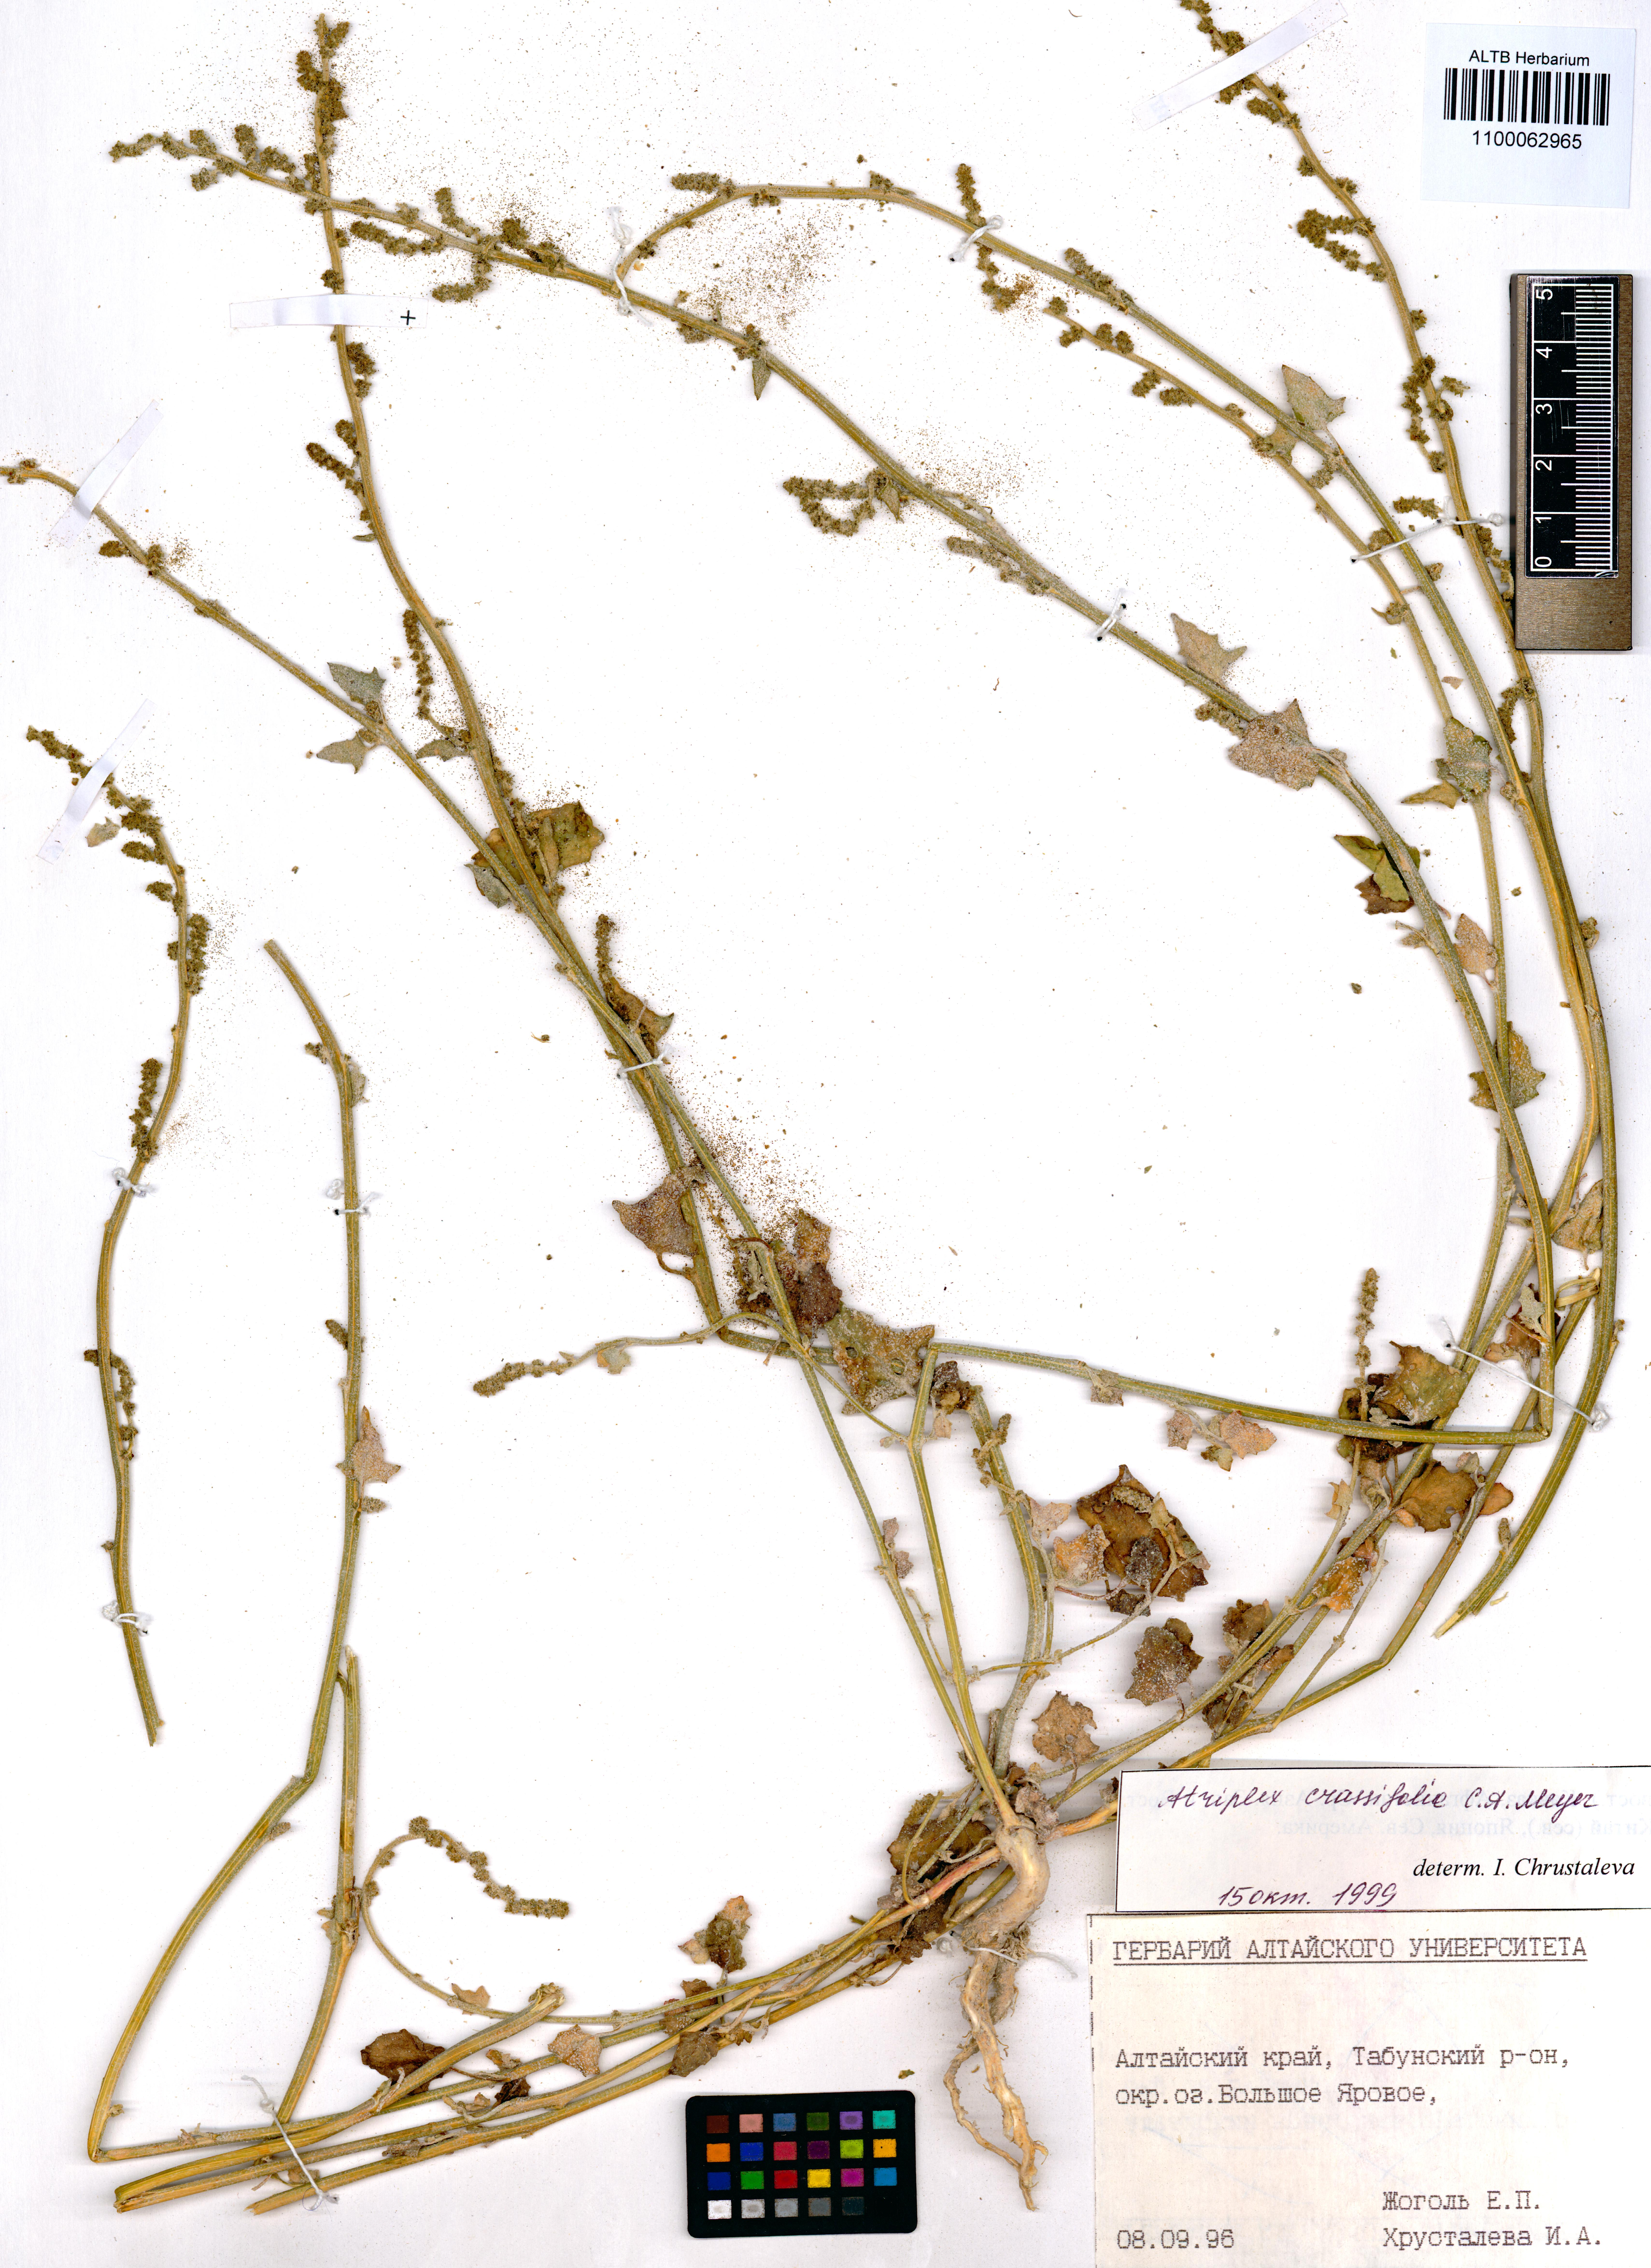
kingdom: Plantae
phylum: Tracheophyta
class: Magnoliopsida
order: Caryophyllales
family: Amaranthaceae
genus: Atriplex
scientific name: Atriplex crassifolia
